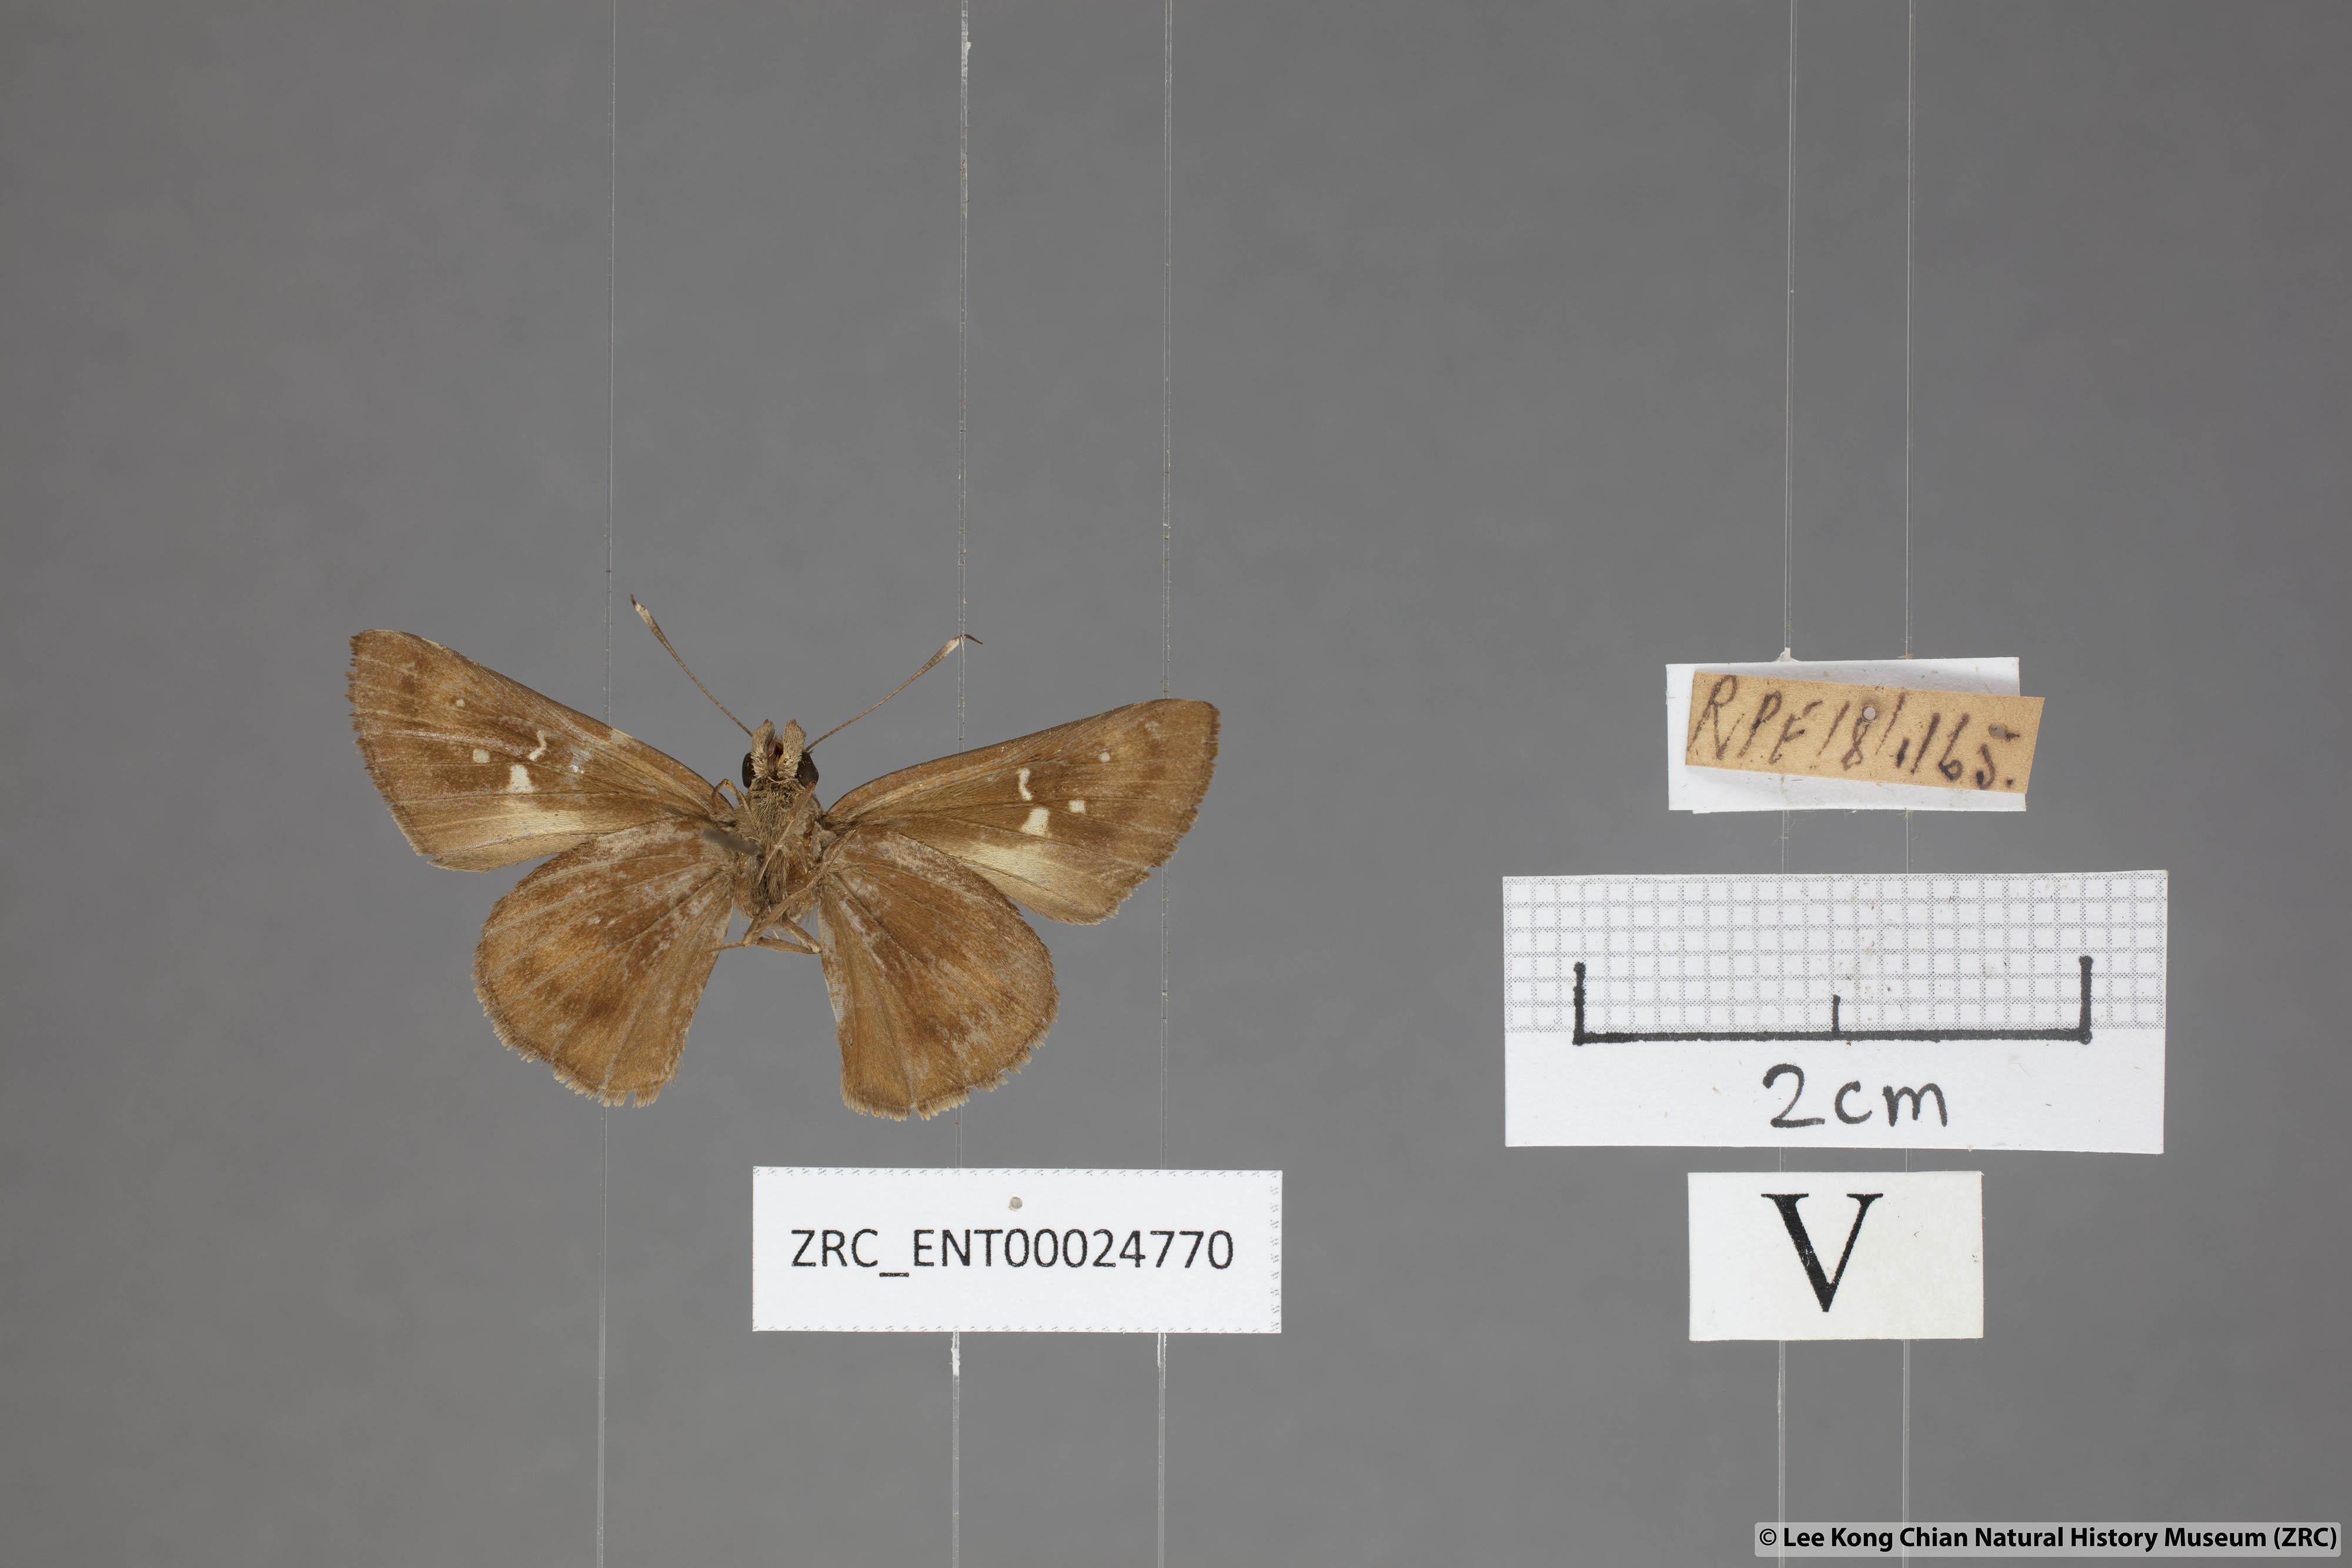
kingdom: Animalia
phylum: Arthropoda
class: Insecta
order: Lepidoptera
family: Hesperiidae
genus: Hyarotis
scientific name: Hyarotis microstictum
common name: Small brush flitter
